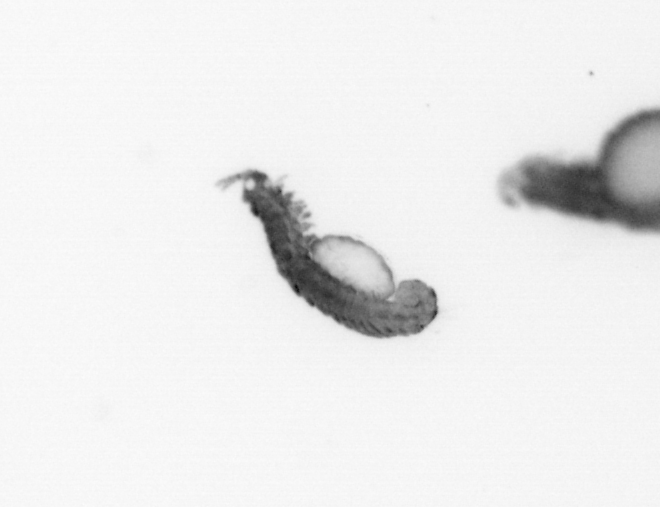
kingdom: Animalia
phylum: Annelida
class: Polychaeta
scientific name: Polychaeta
